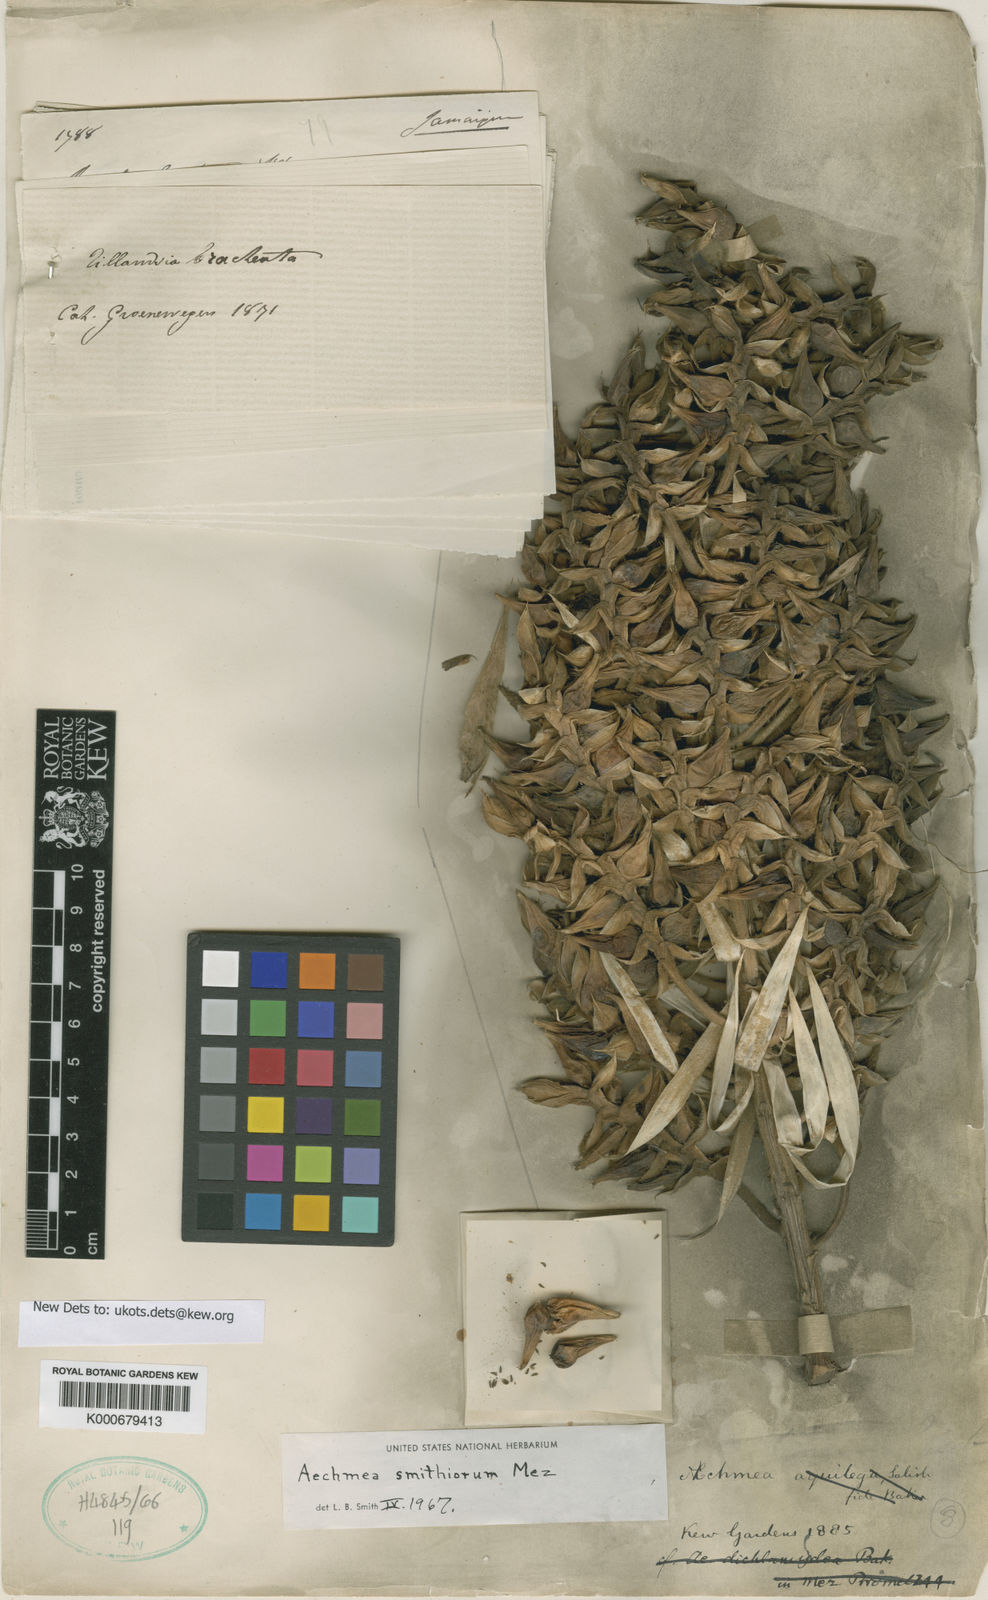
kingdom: Plantae
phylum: Tracheophyta
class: Liliopsida
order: Poales
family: Bromeliaceae
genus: Aechmea
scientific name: Aechmea smithiorum
